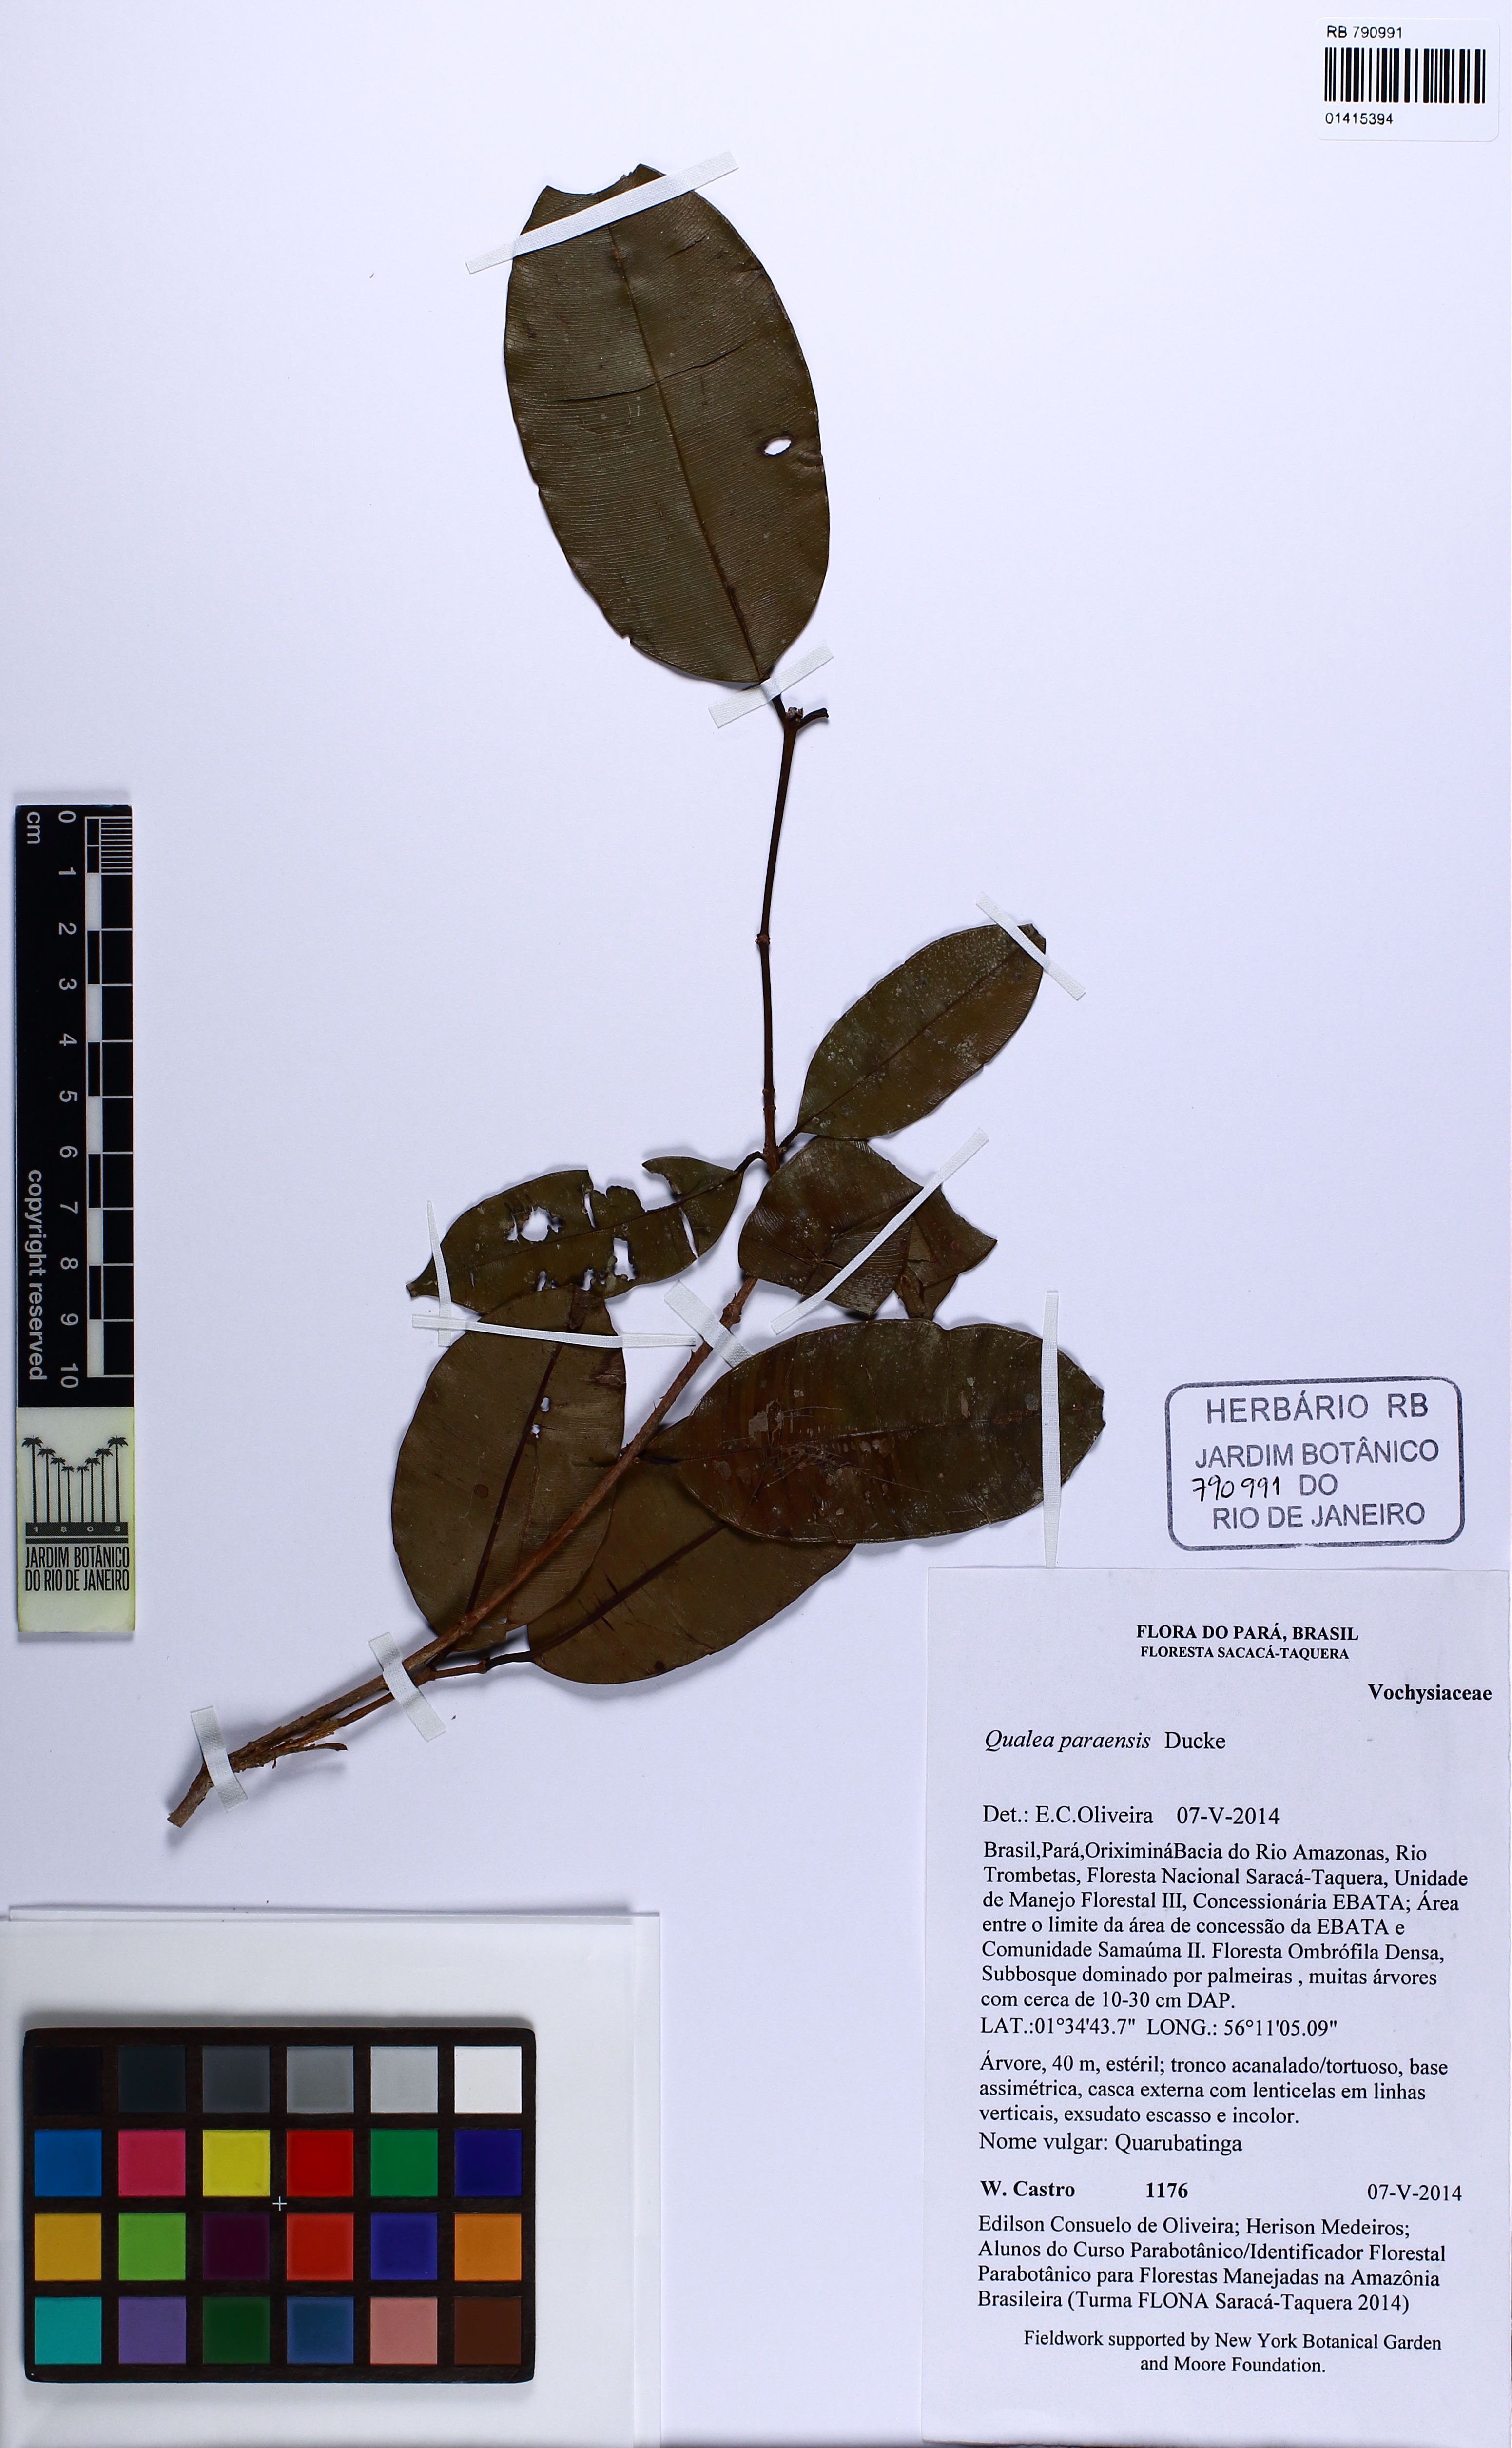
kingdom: Plantae
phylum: Tracheophyta
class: Magnoliopsida
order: Myrtales
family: Vochysiaceae
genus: Qualea
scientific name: Qualea paraensis
